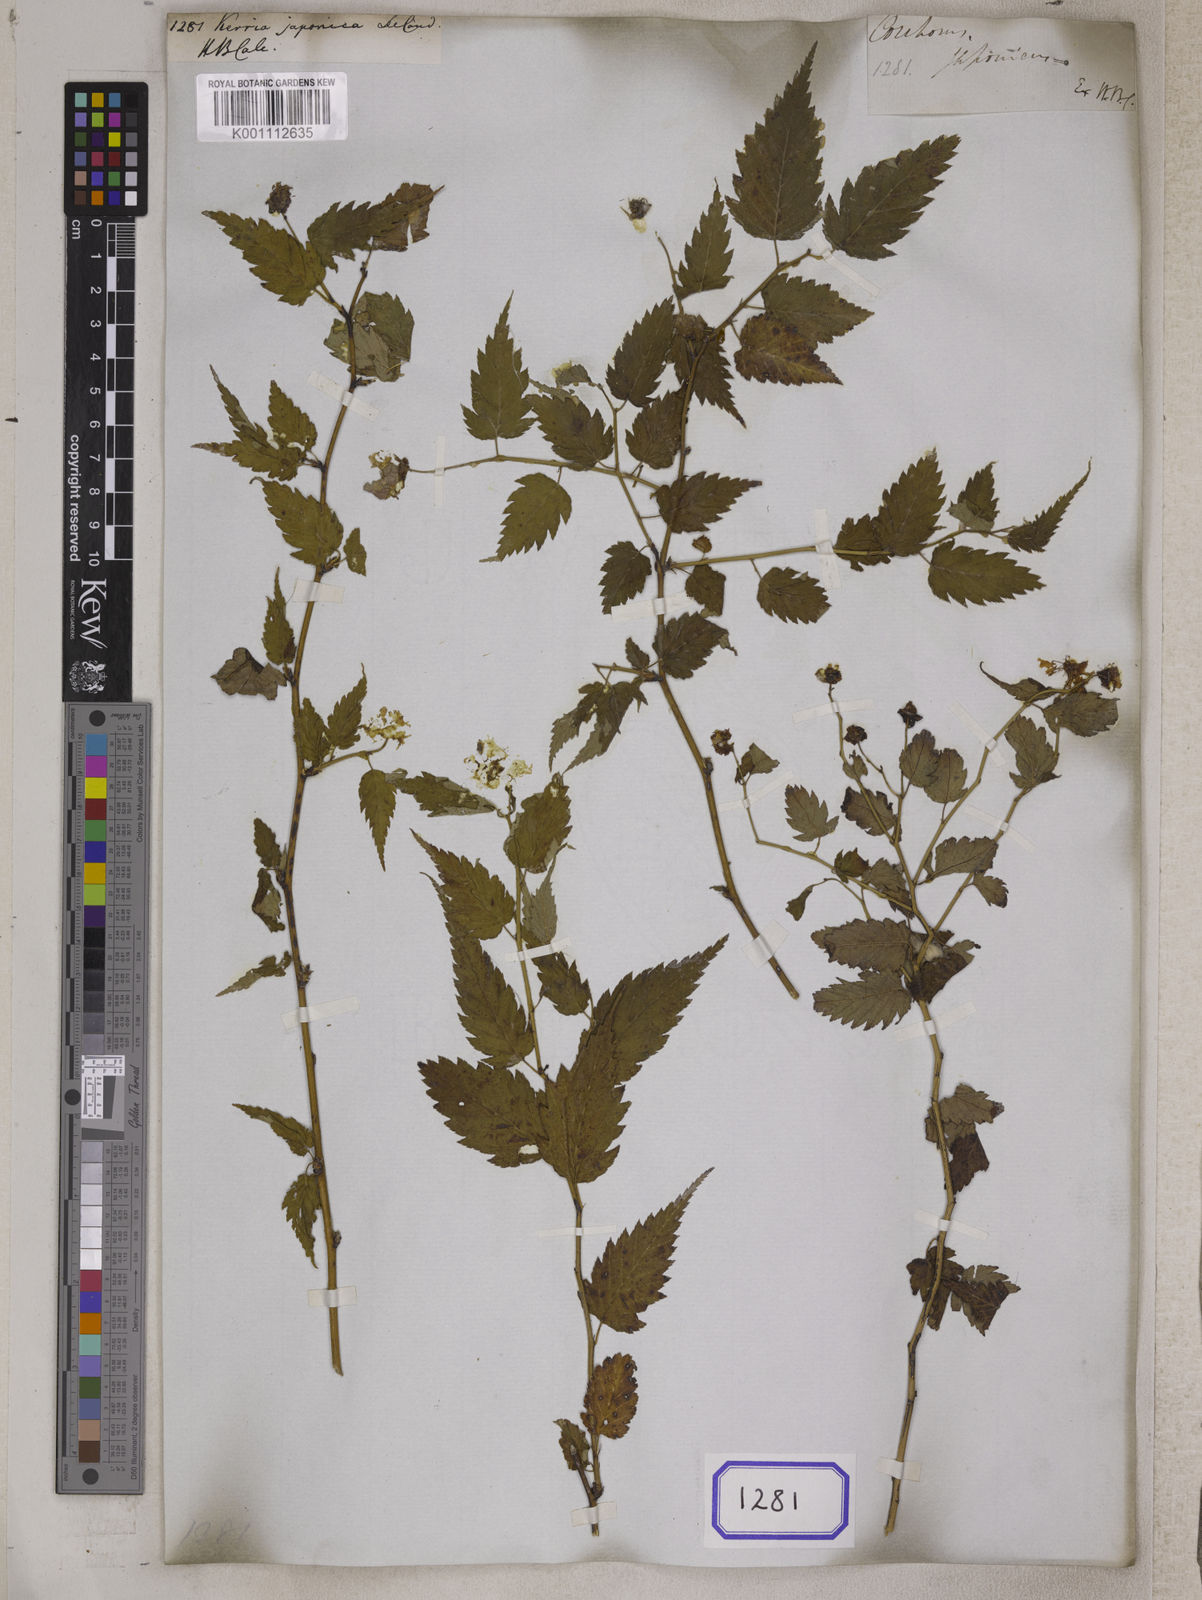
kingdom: Plantae
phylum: Tracheophyta
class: Magnoliopsida
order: Rosales
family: Rosaceae
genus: Kerria
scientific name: Kerria japonica
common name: Japanese kerria
